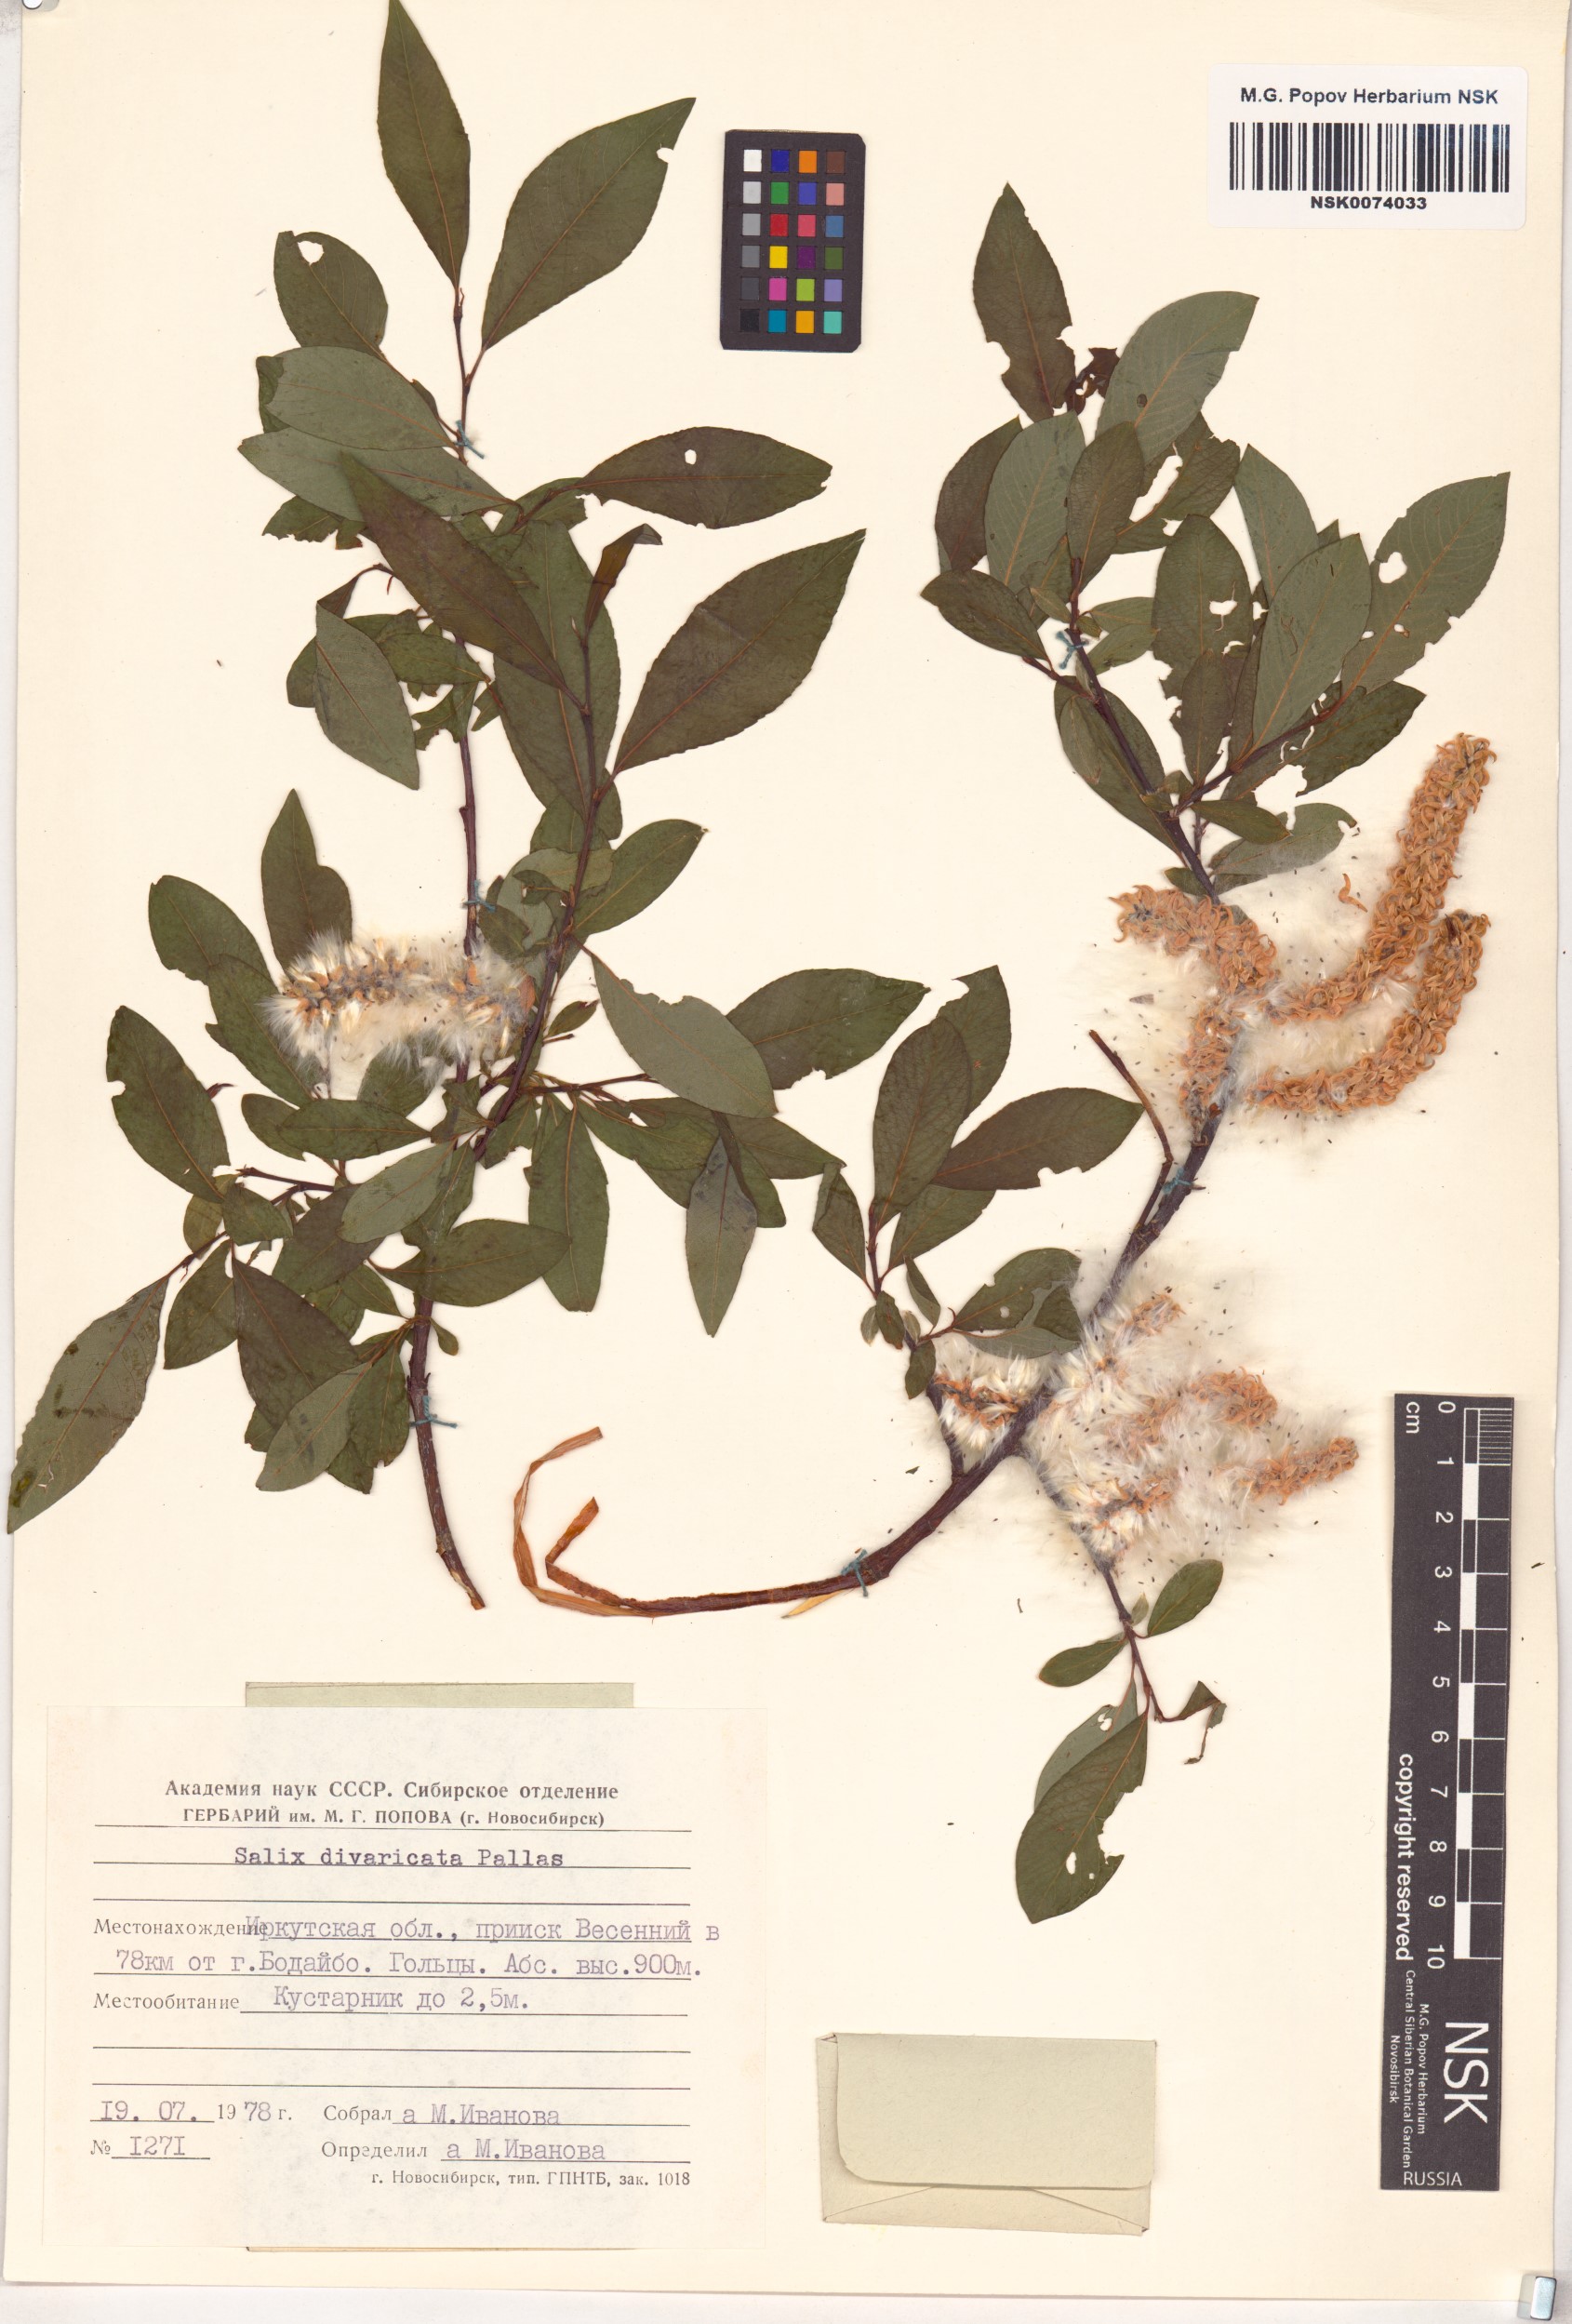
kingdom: Plantae
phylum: Tracheophyta
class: Magnoliopsida
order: Malpighiales
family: Salicaceae
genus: Salix
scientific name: Salix divaricata
